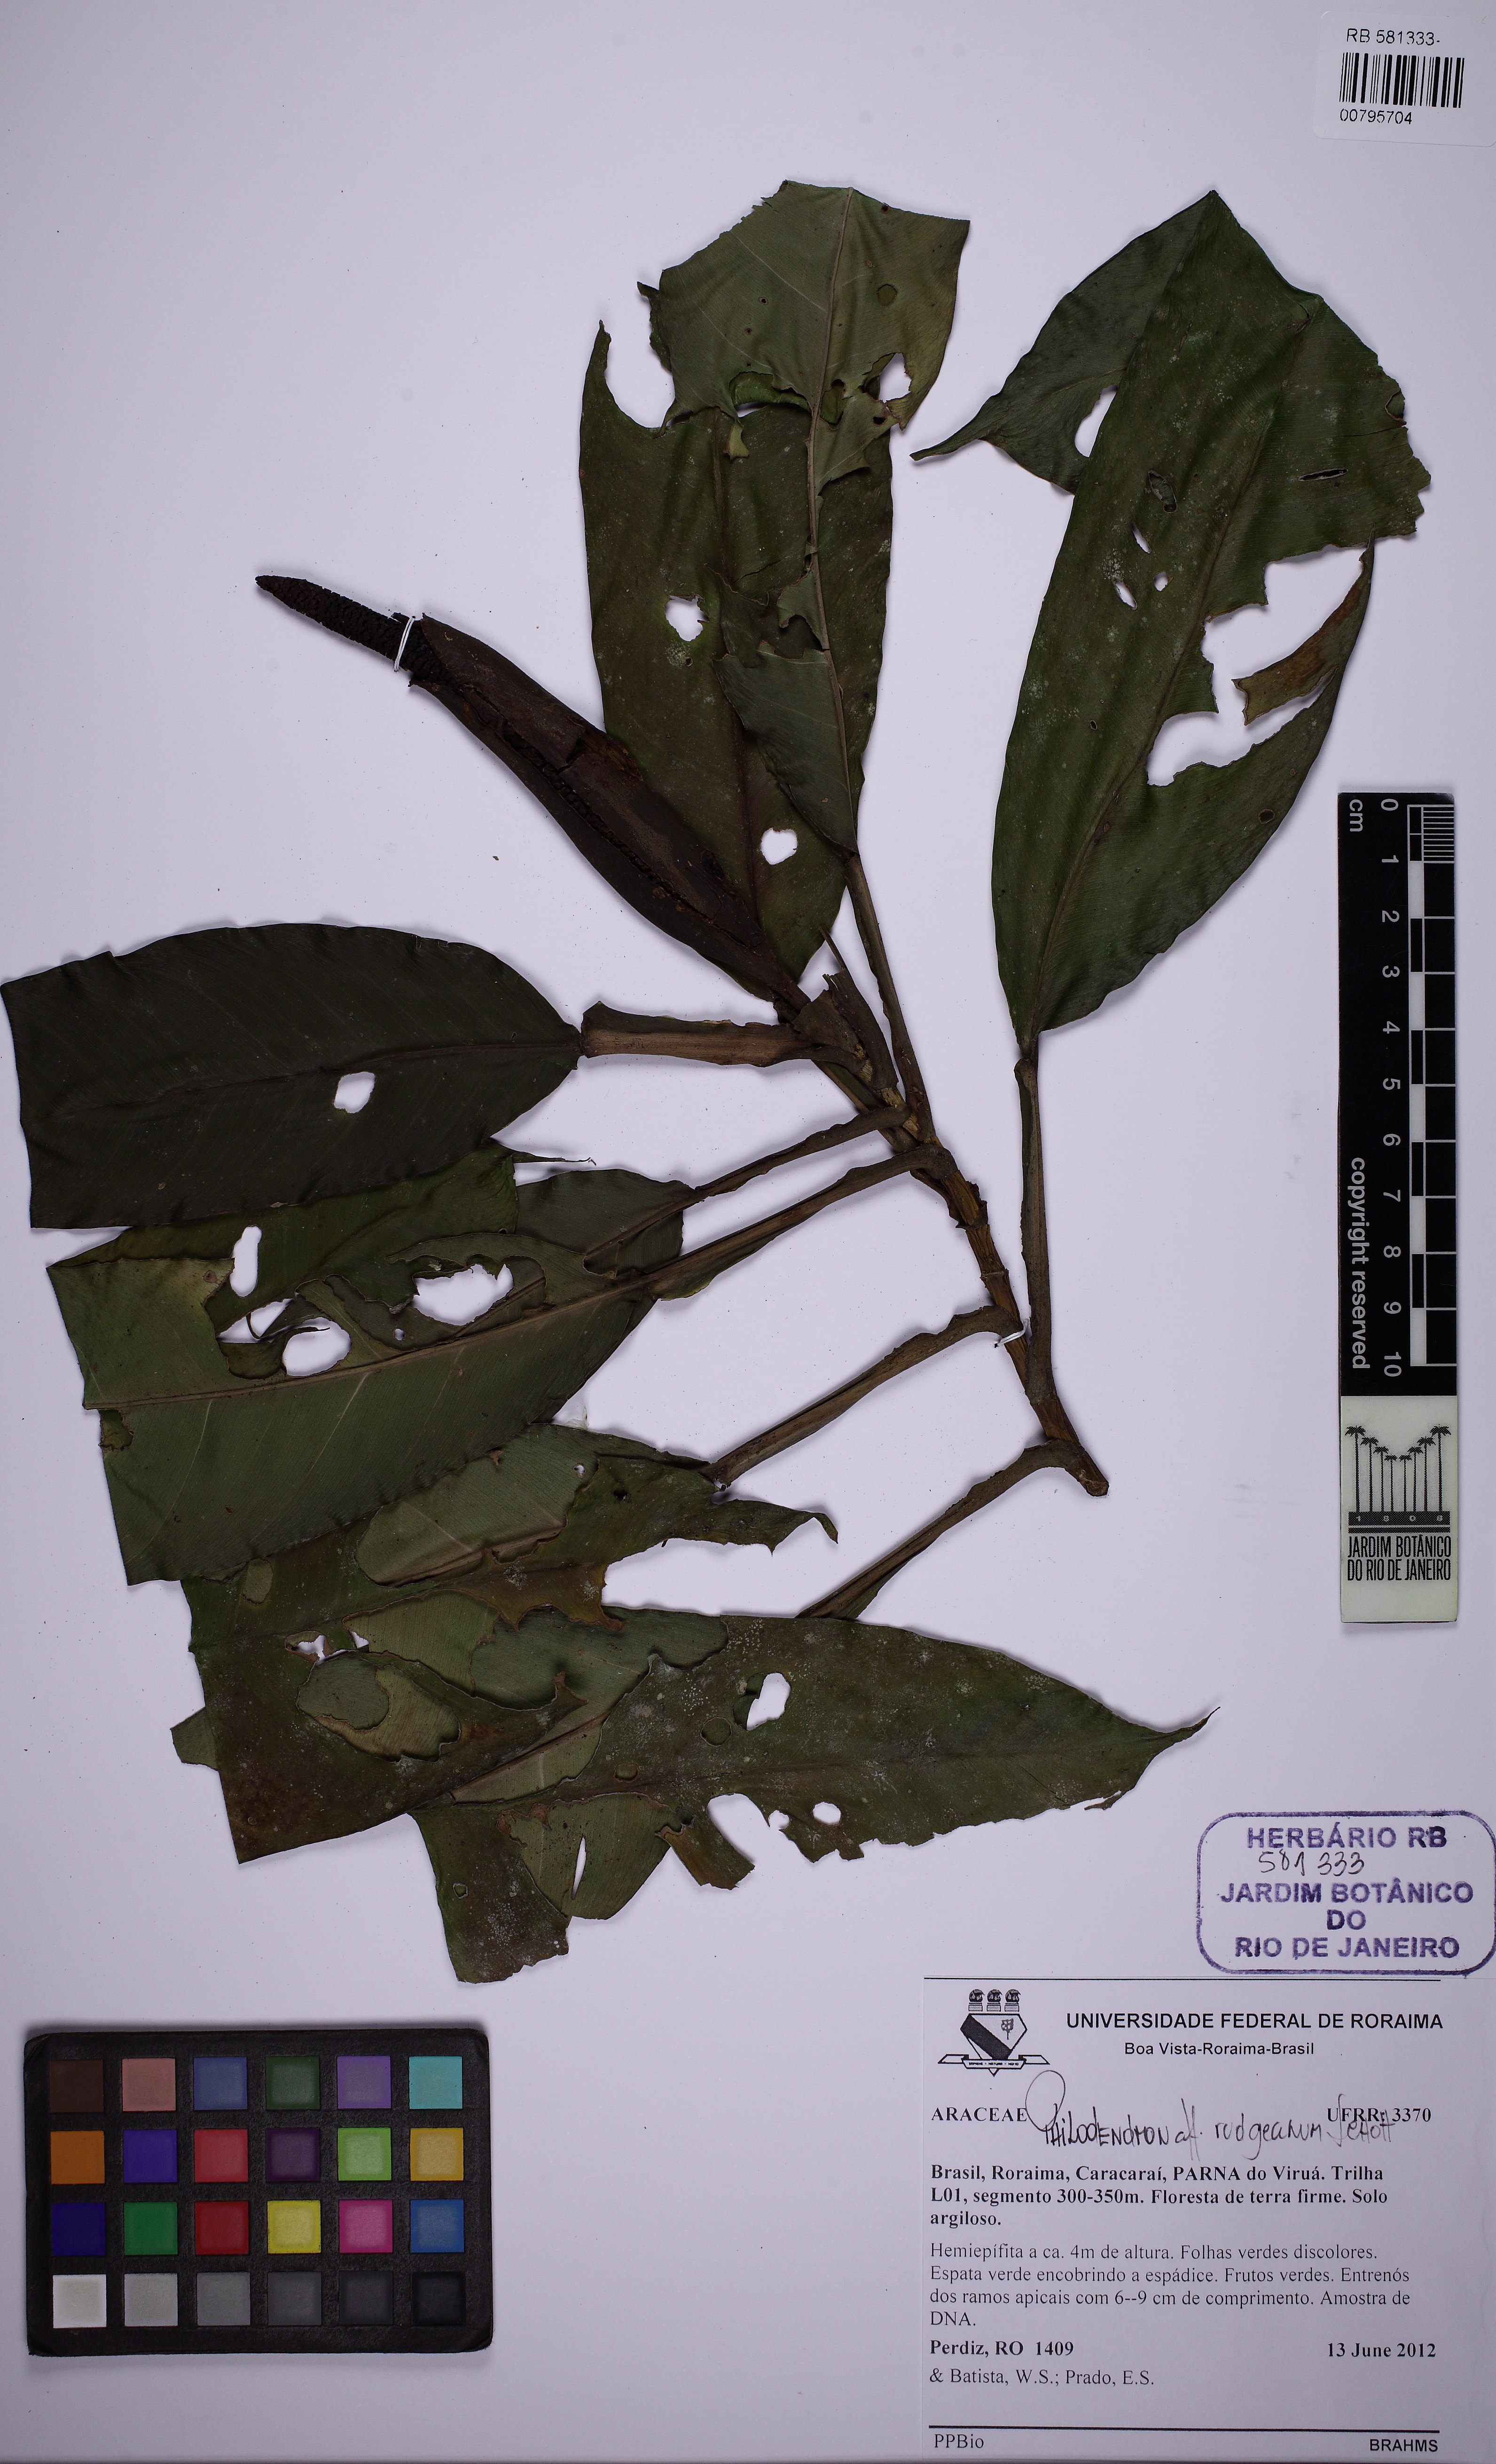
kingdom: Plantae
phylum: Tracheophyta
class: Liliopsida
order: Alismatales
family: Araceae
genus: Philodendron
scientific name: Philodendron rudgeanum
